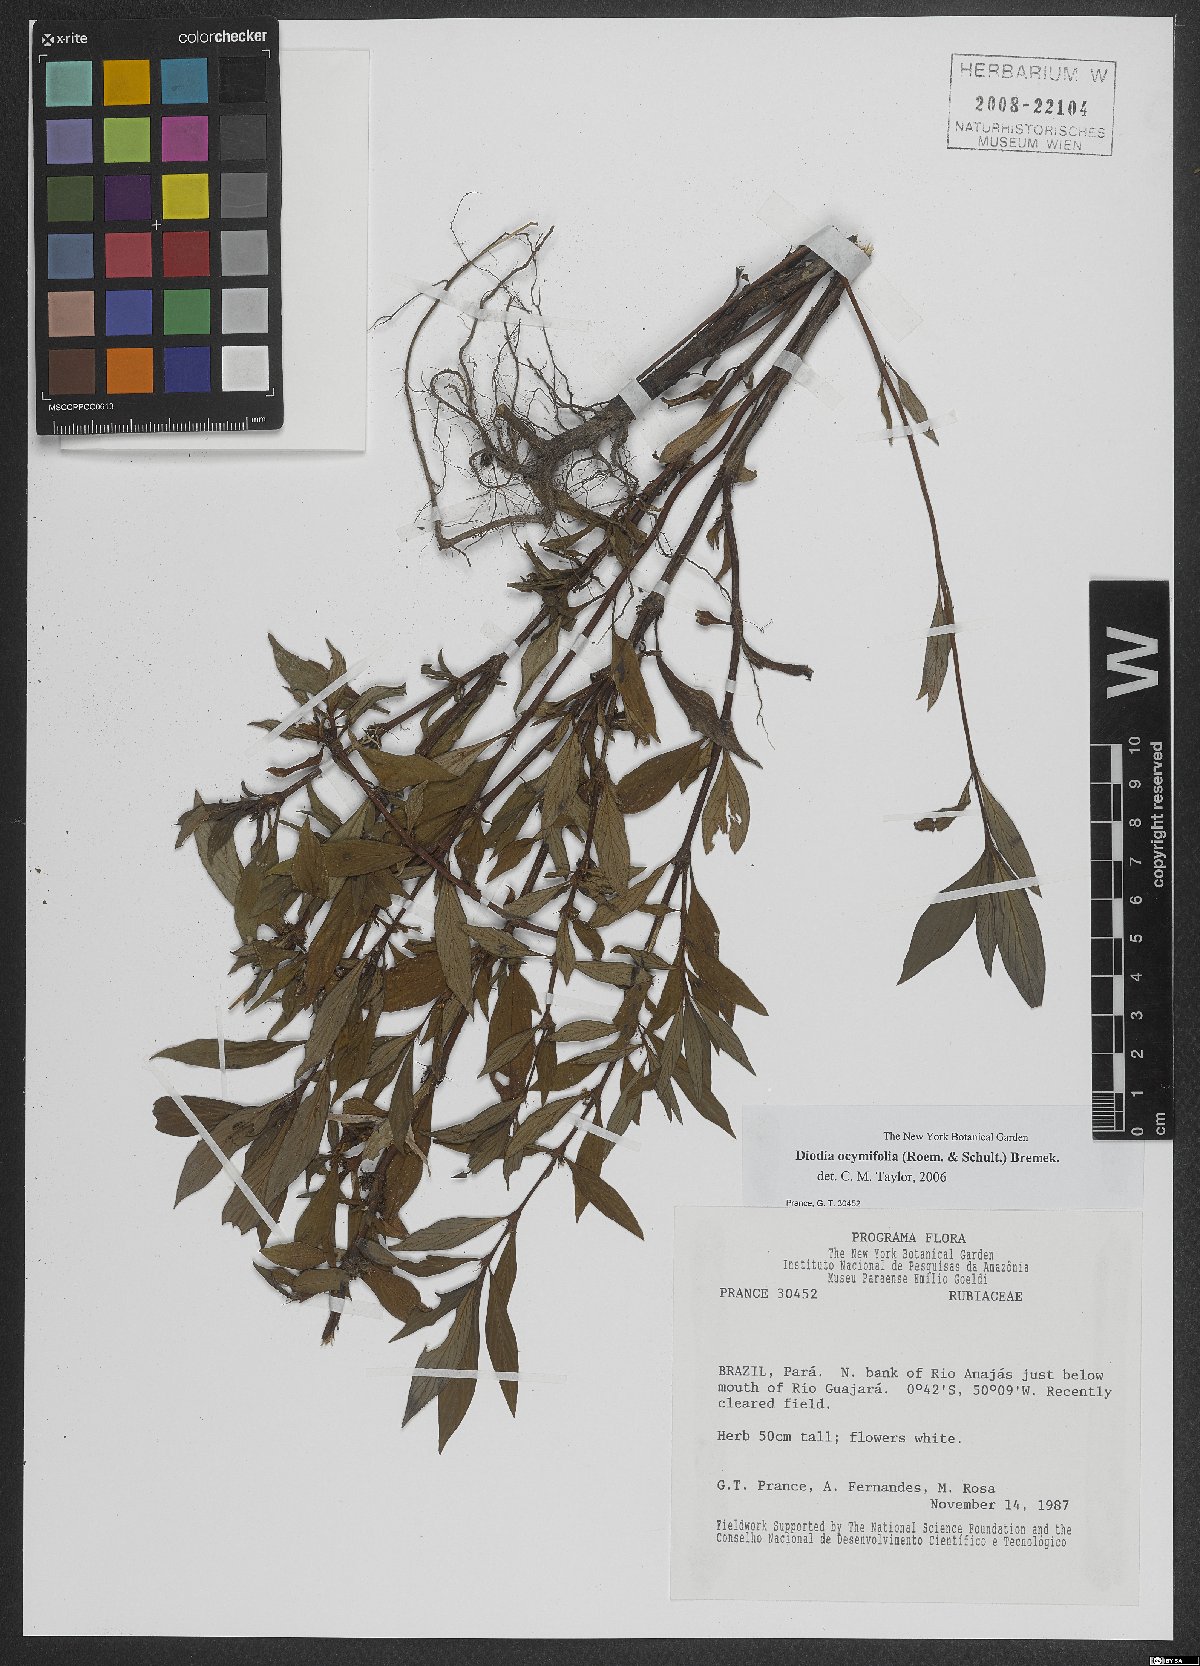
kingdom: Plantae
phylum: Tracheophyta
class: Magnoliopsida
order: Gentianales
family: Rubiaceae
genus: Spermacoce
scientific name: Spermacoce ocymifolia
